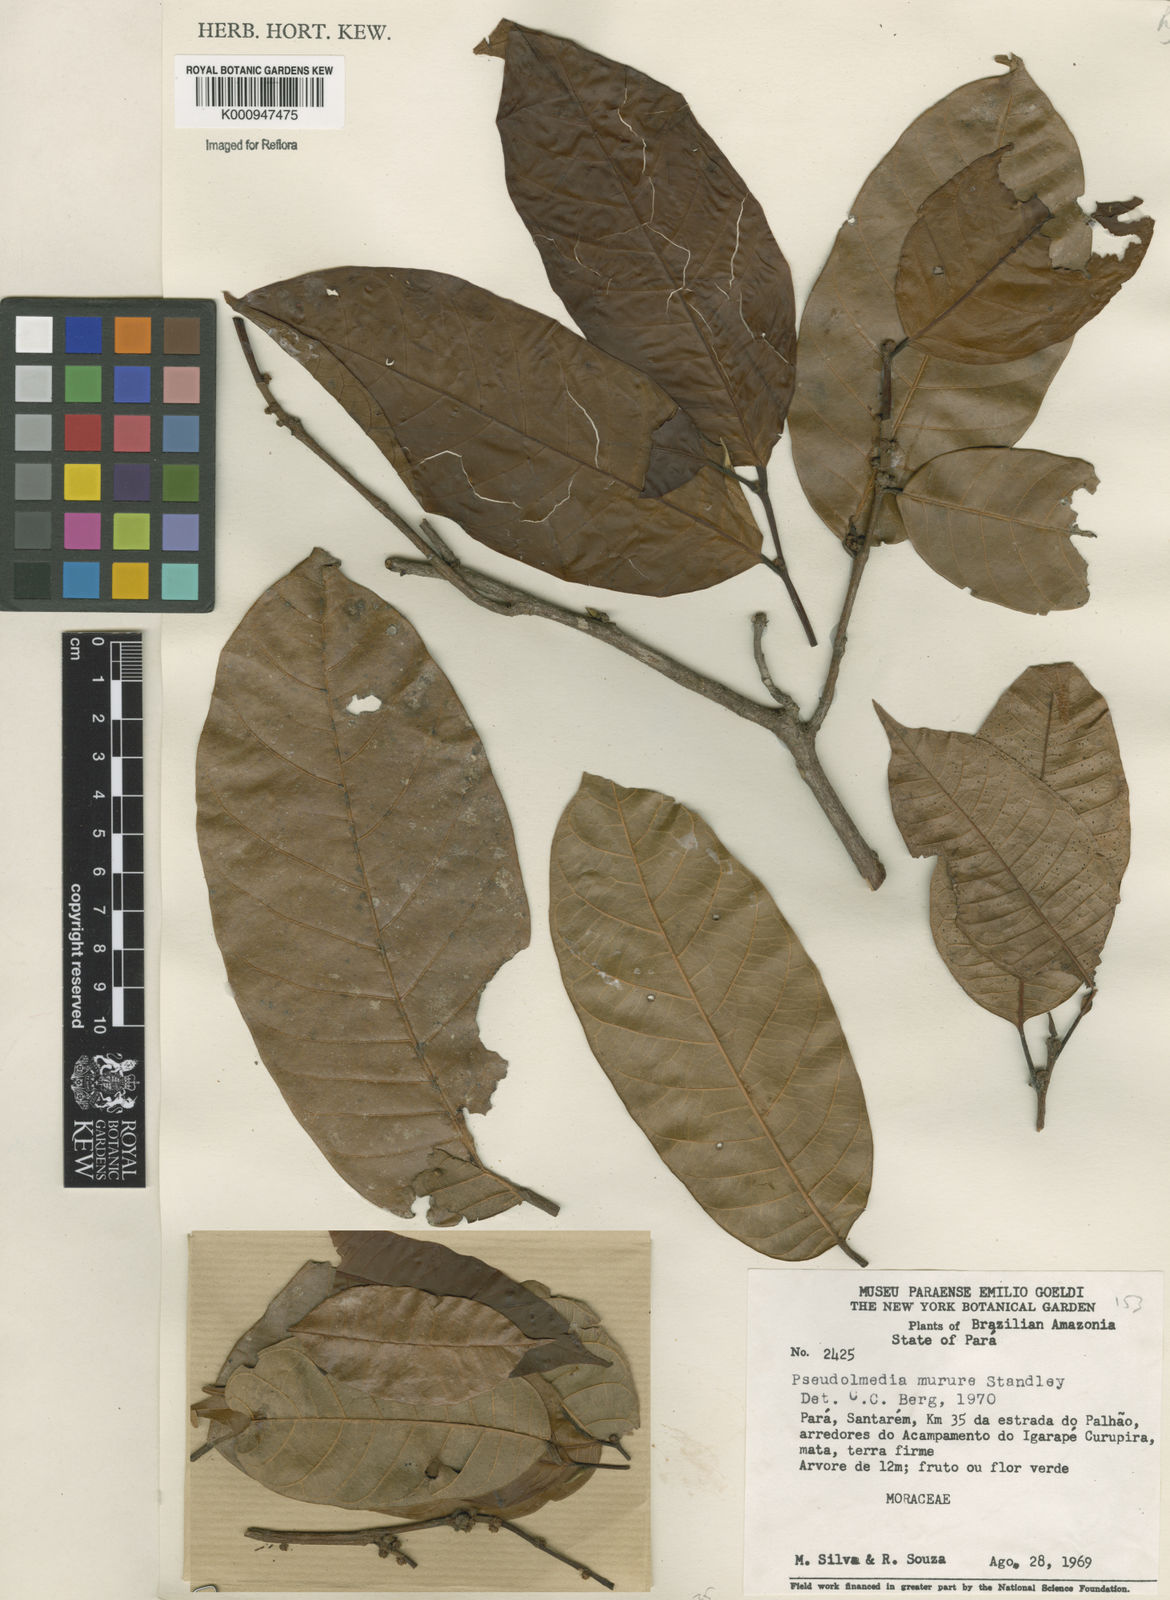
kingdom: Plantae
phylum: Tracheophyta
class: Magnoliopsida
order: Rosales
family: Moraceae
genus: Pseudolmedia
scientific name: Pseudolmedia macrophylla
